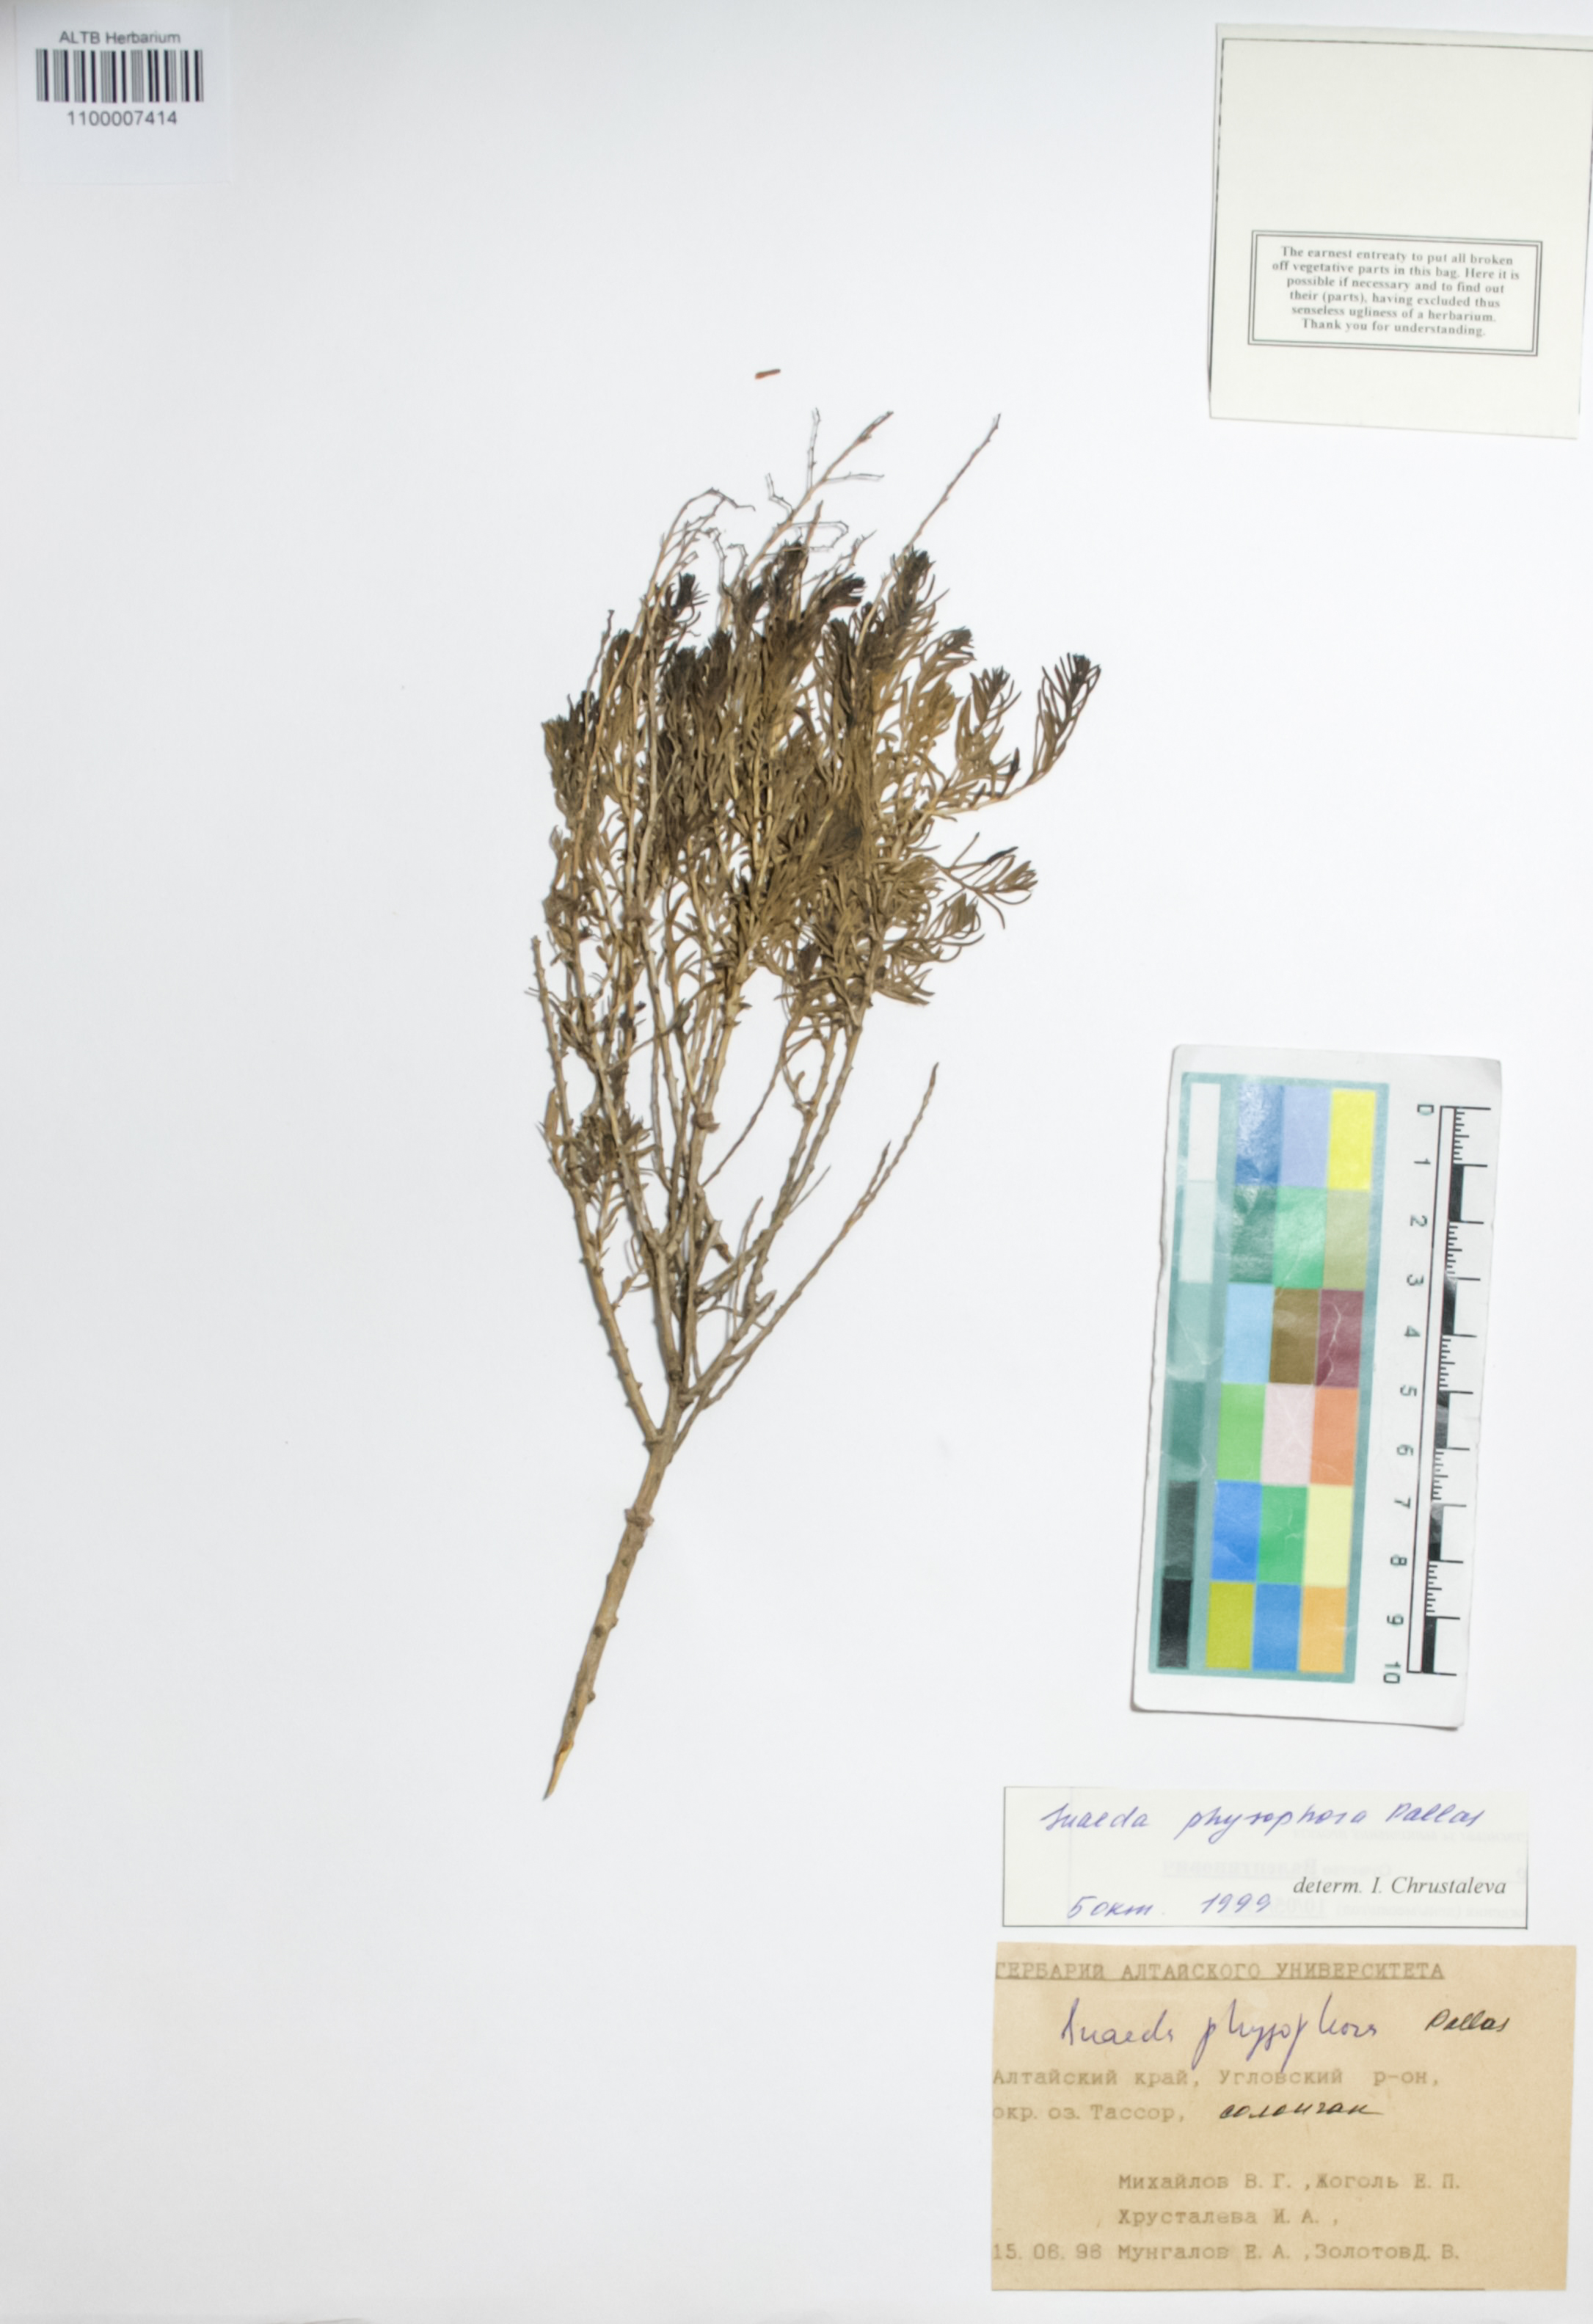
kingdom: Plantae
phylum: Tracheophyta
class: Magnoliopsida
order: Caryophyllales
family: Amaranthaceae
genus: Suaeda
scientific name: Suaeda physophora
